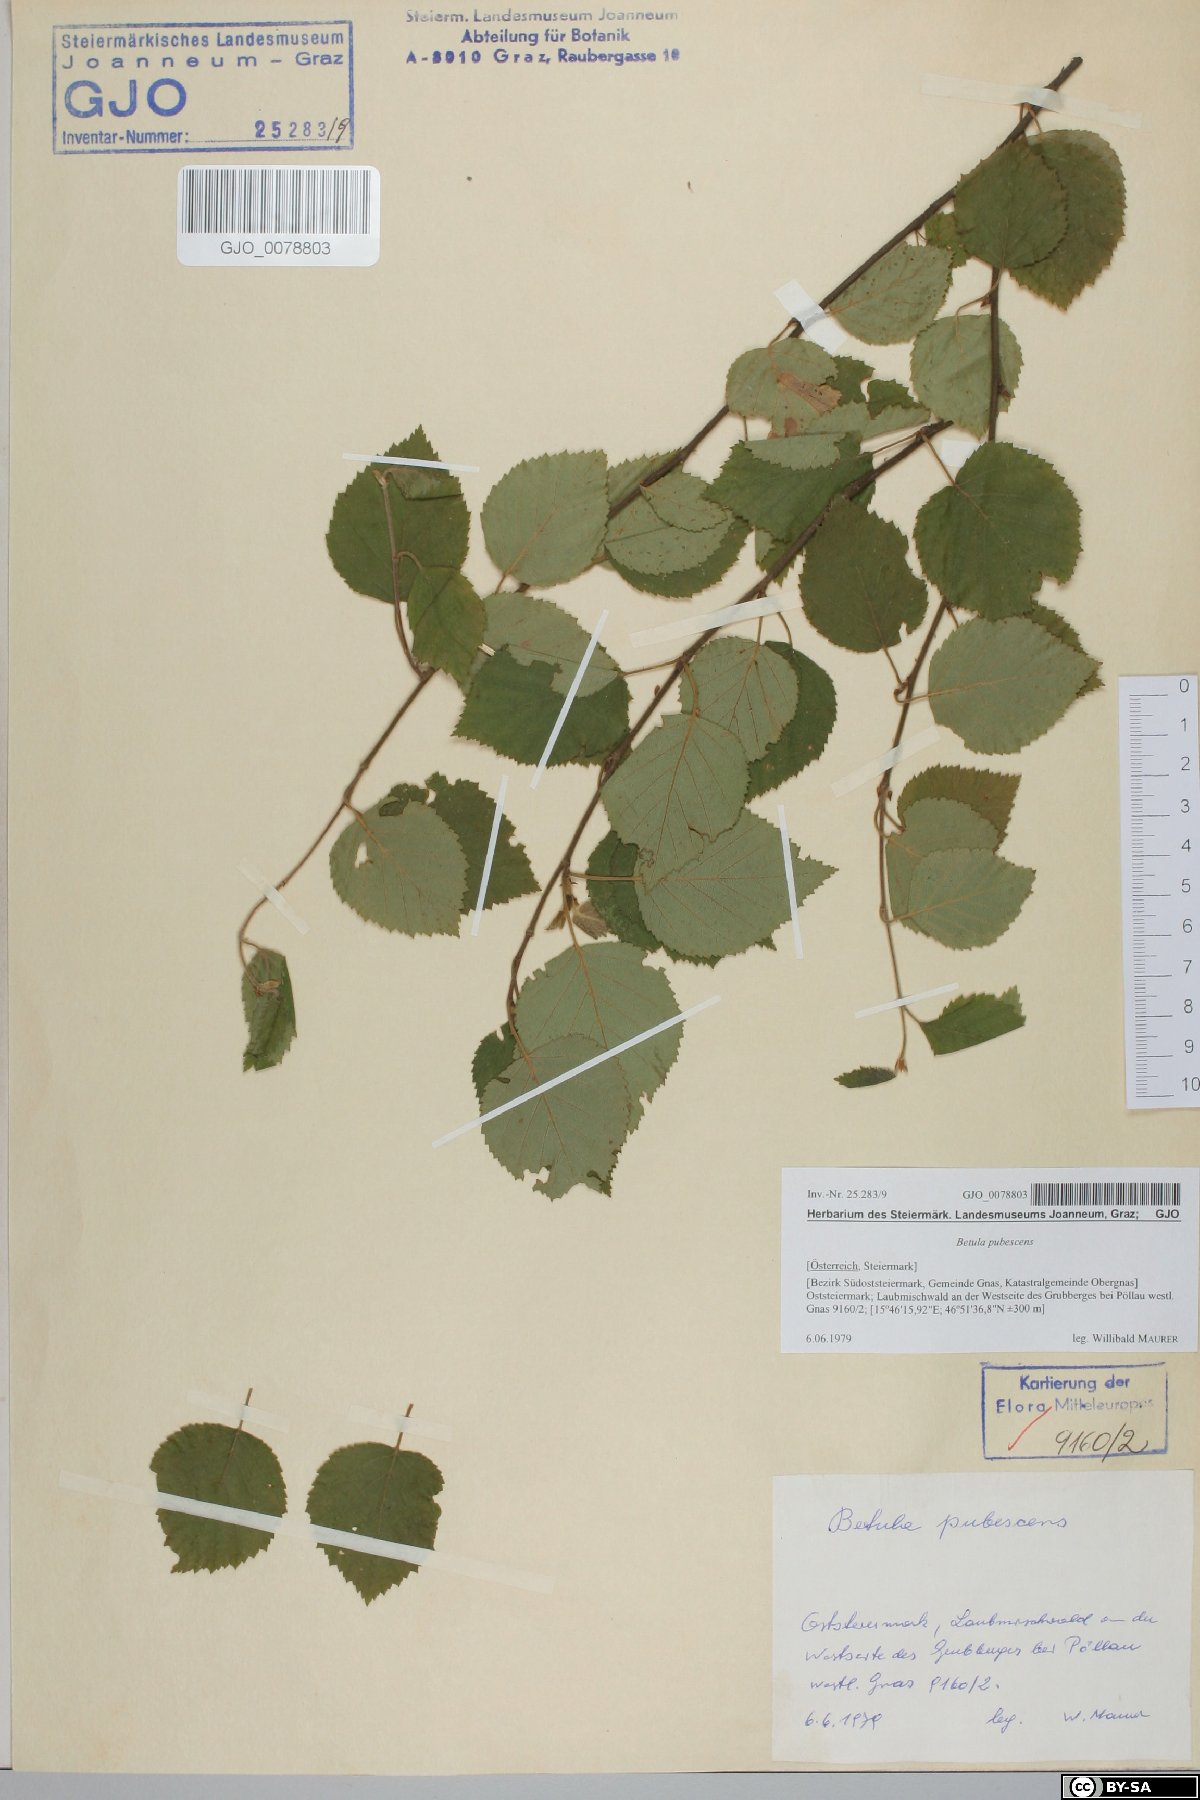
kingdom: Plantae
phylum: Tracheophyta
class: Magnoliopsida
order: Fagales
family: Betulaceae
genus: Betula
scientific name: Betula pubescens
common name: Downy birch
